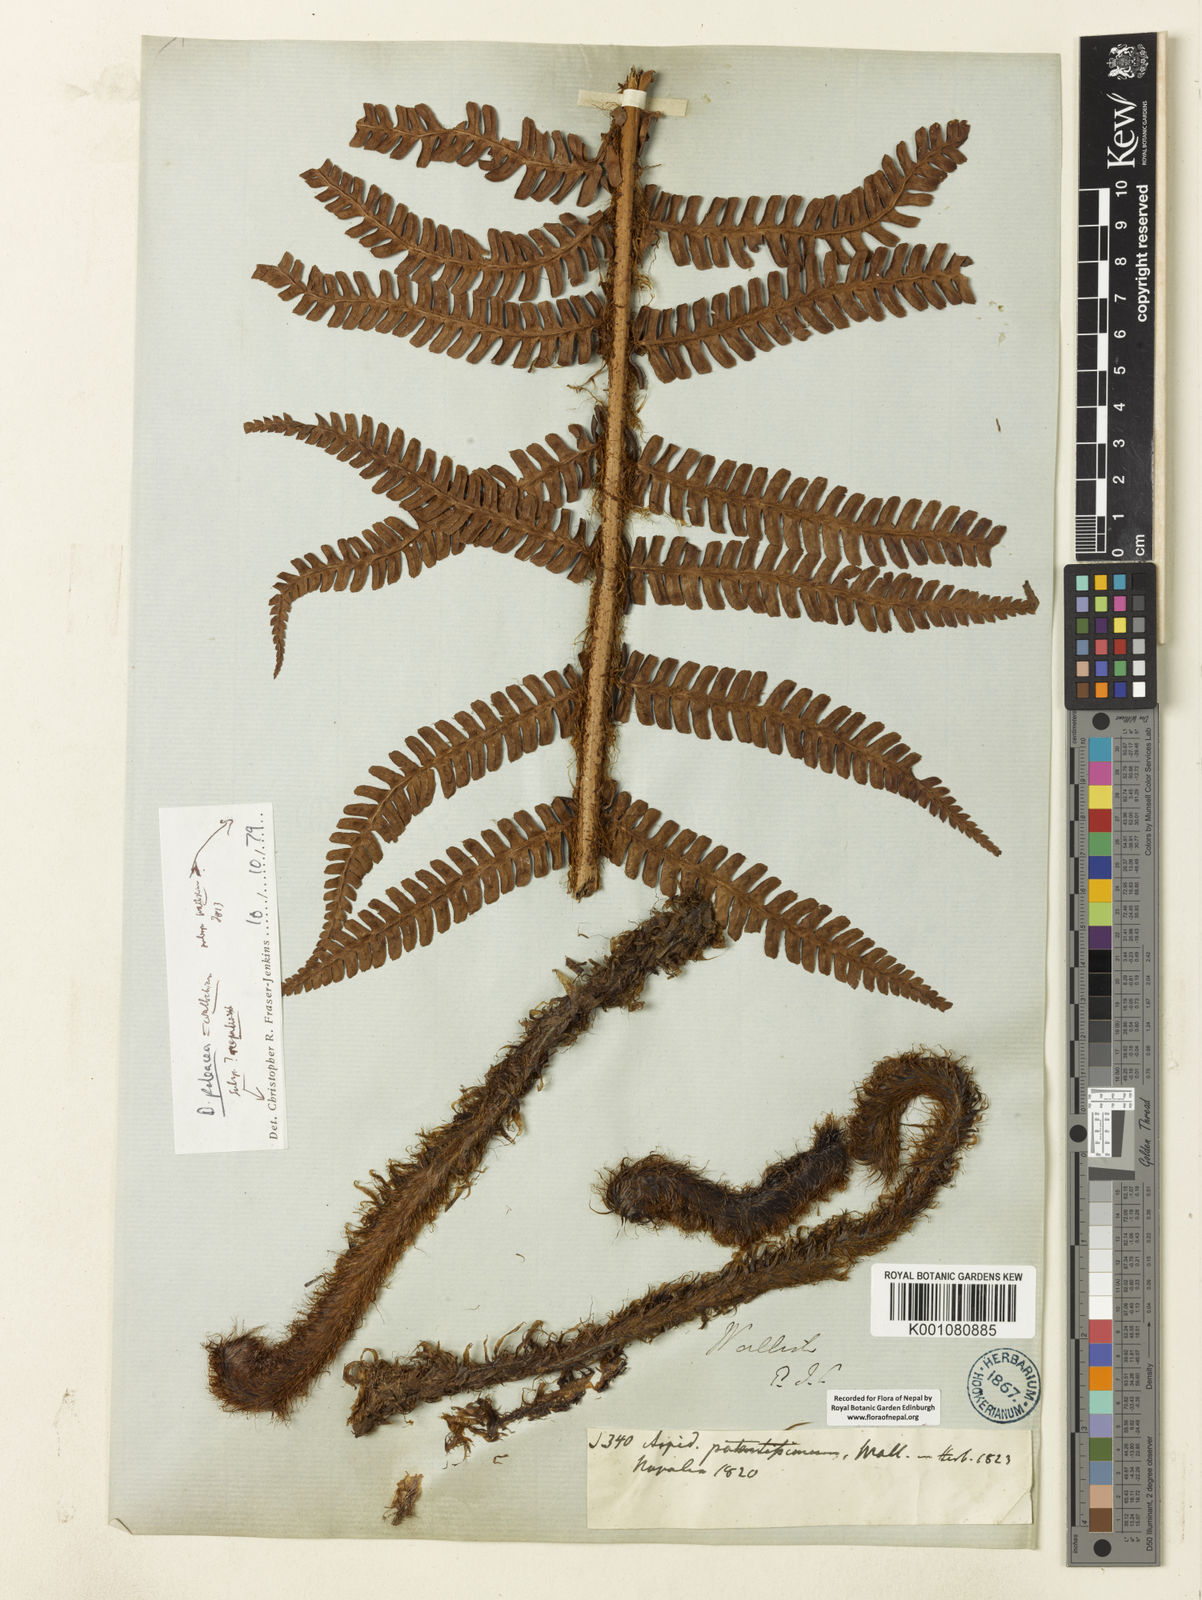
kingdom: Plantae
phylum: Tracheophyta
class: Polypodiopsida
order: Polypodiales
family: Dryopteridaceae
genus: Dryopteris
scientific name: Dryopteris wallichiana
